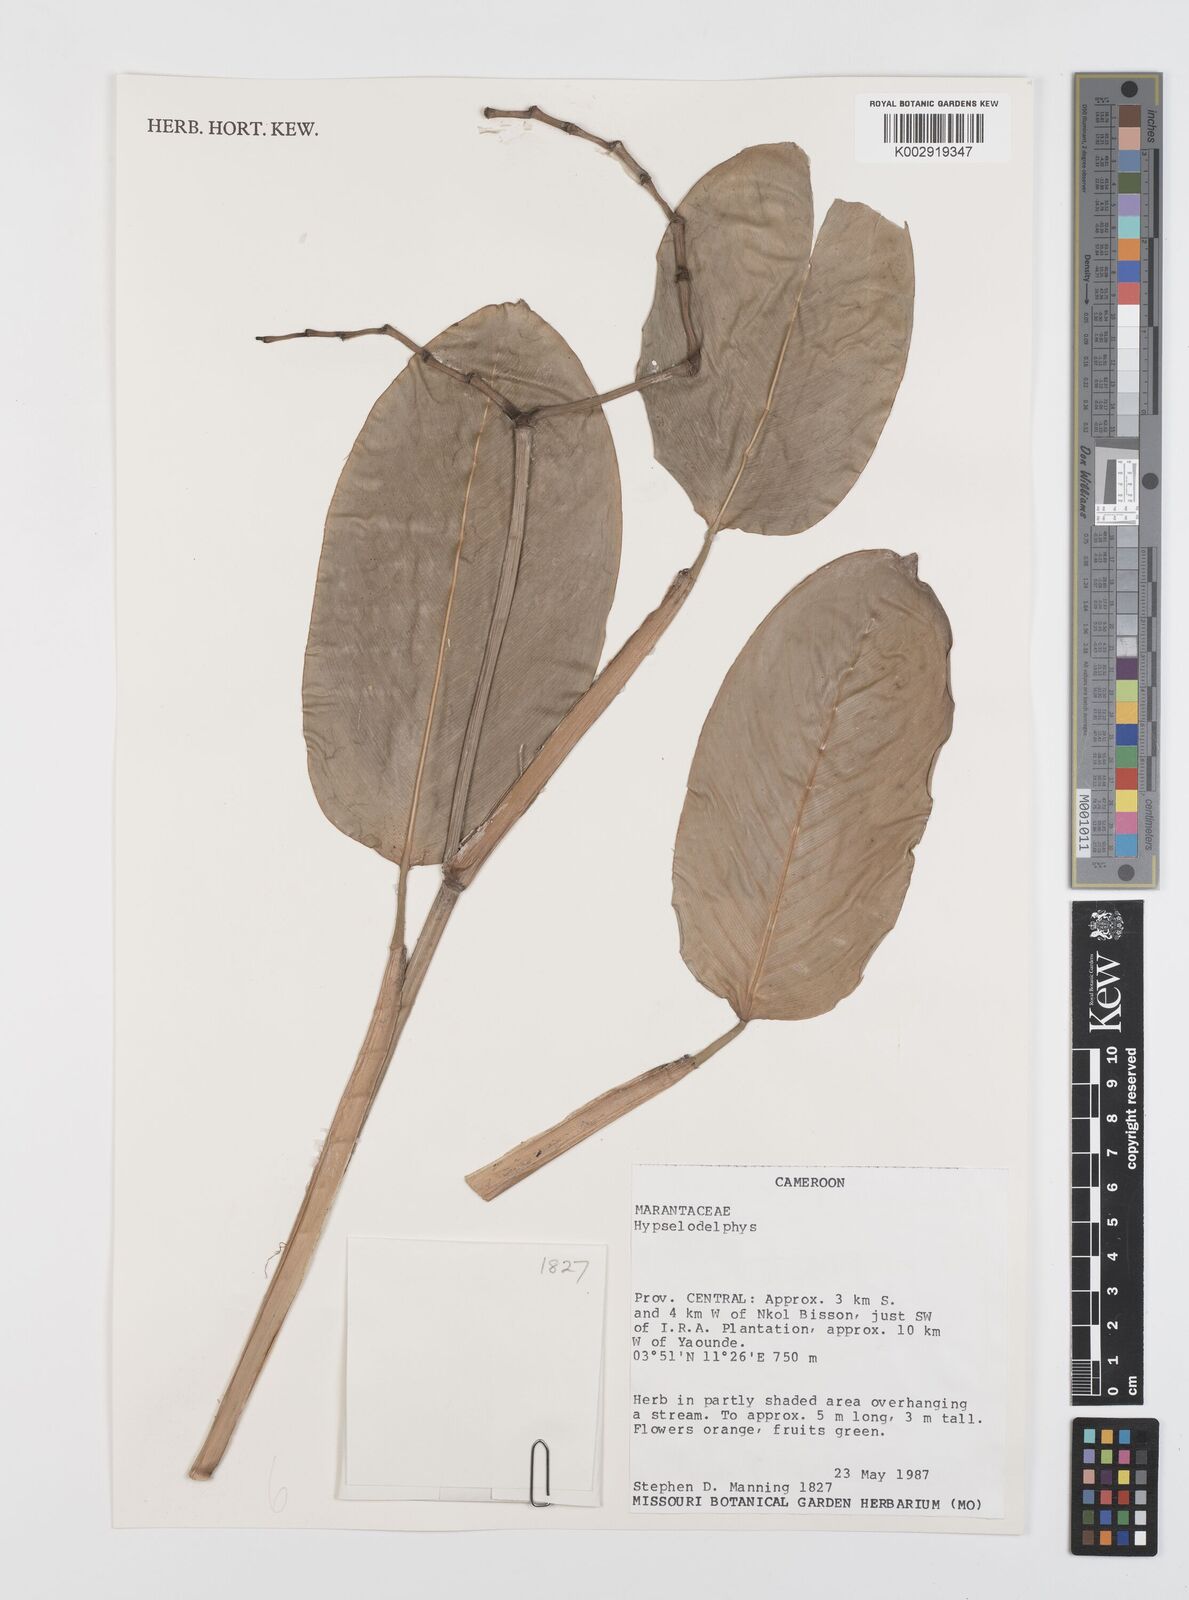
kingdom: Plantae
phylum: Tracheophyta
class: Liliopsida
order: Zingiberales
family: Marantaceae
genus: Hypselodelphys
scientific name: Hypselodelphys
